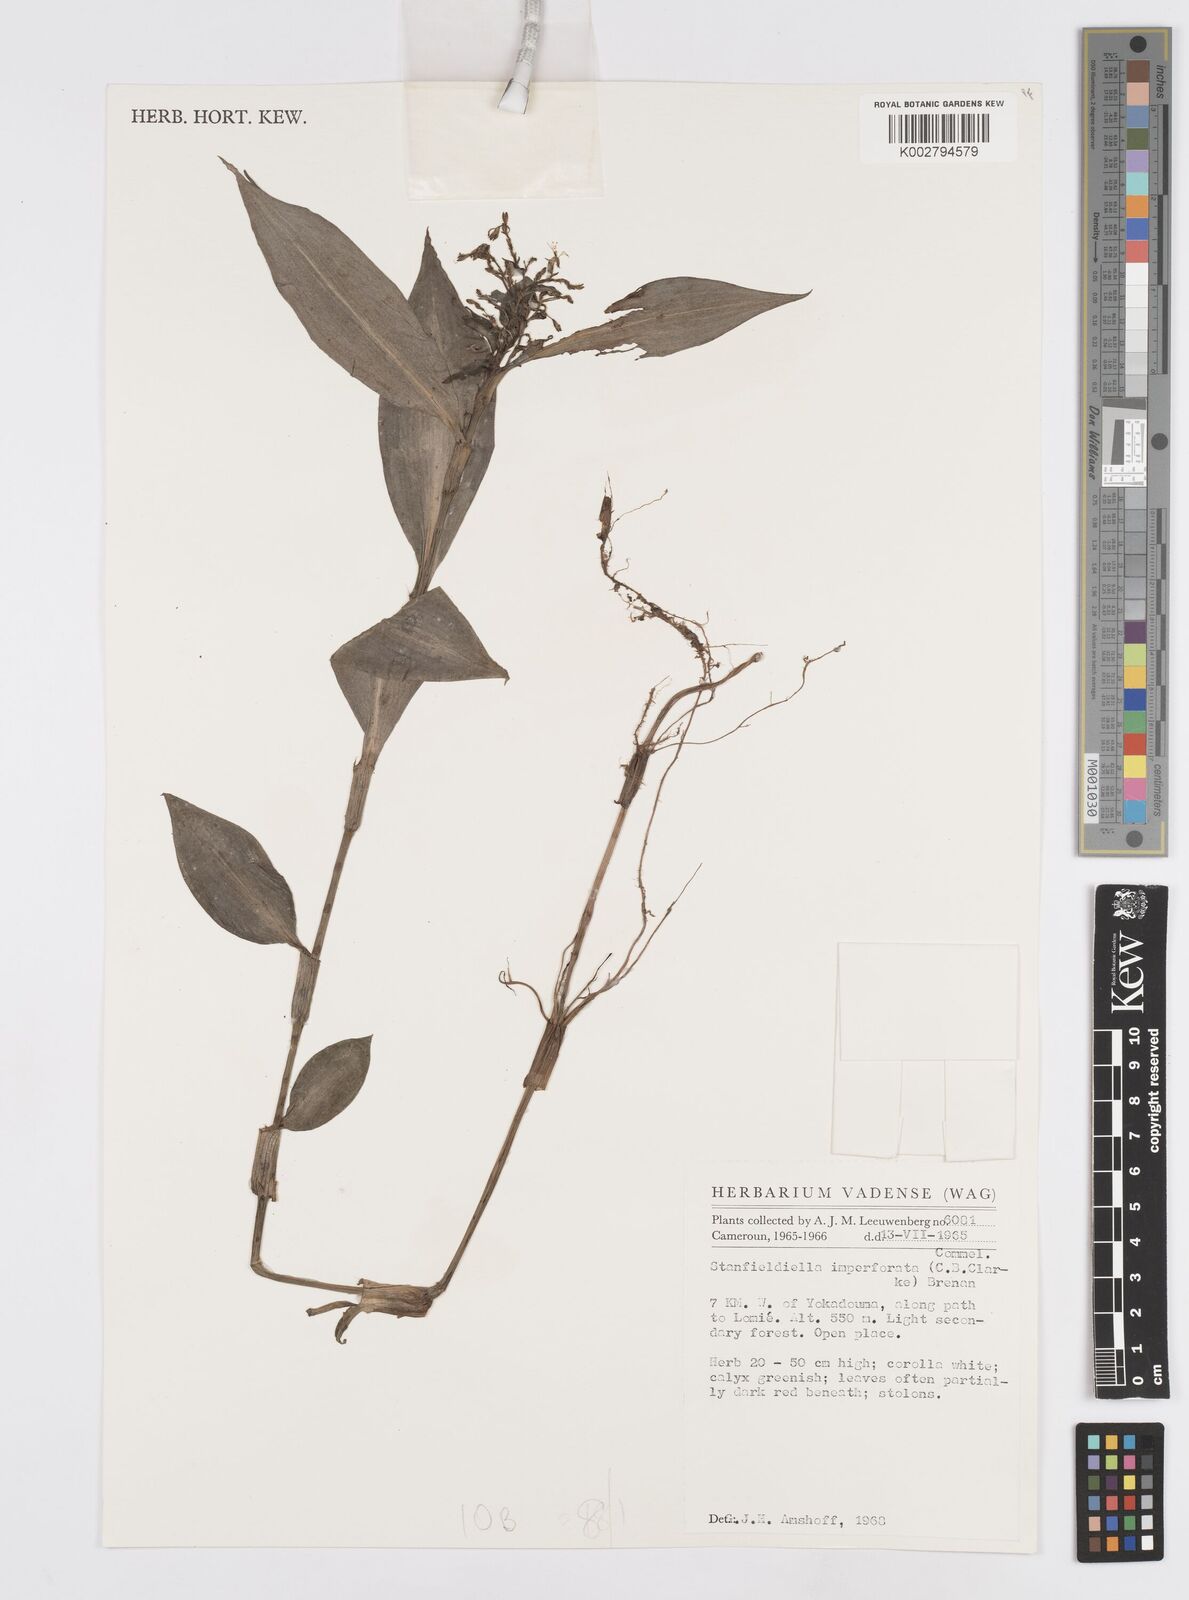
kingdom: Plantae
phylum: Tracheophyta
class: Liliopsida
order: Commelinales
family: Commelinaceae
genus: Stanfieldiella
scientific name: Stanfieldiella imperforata
